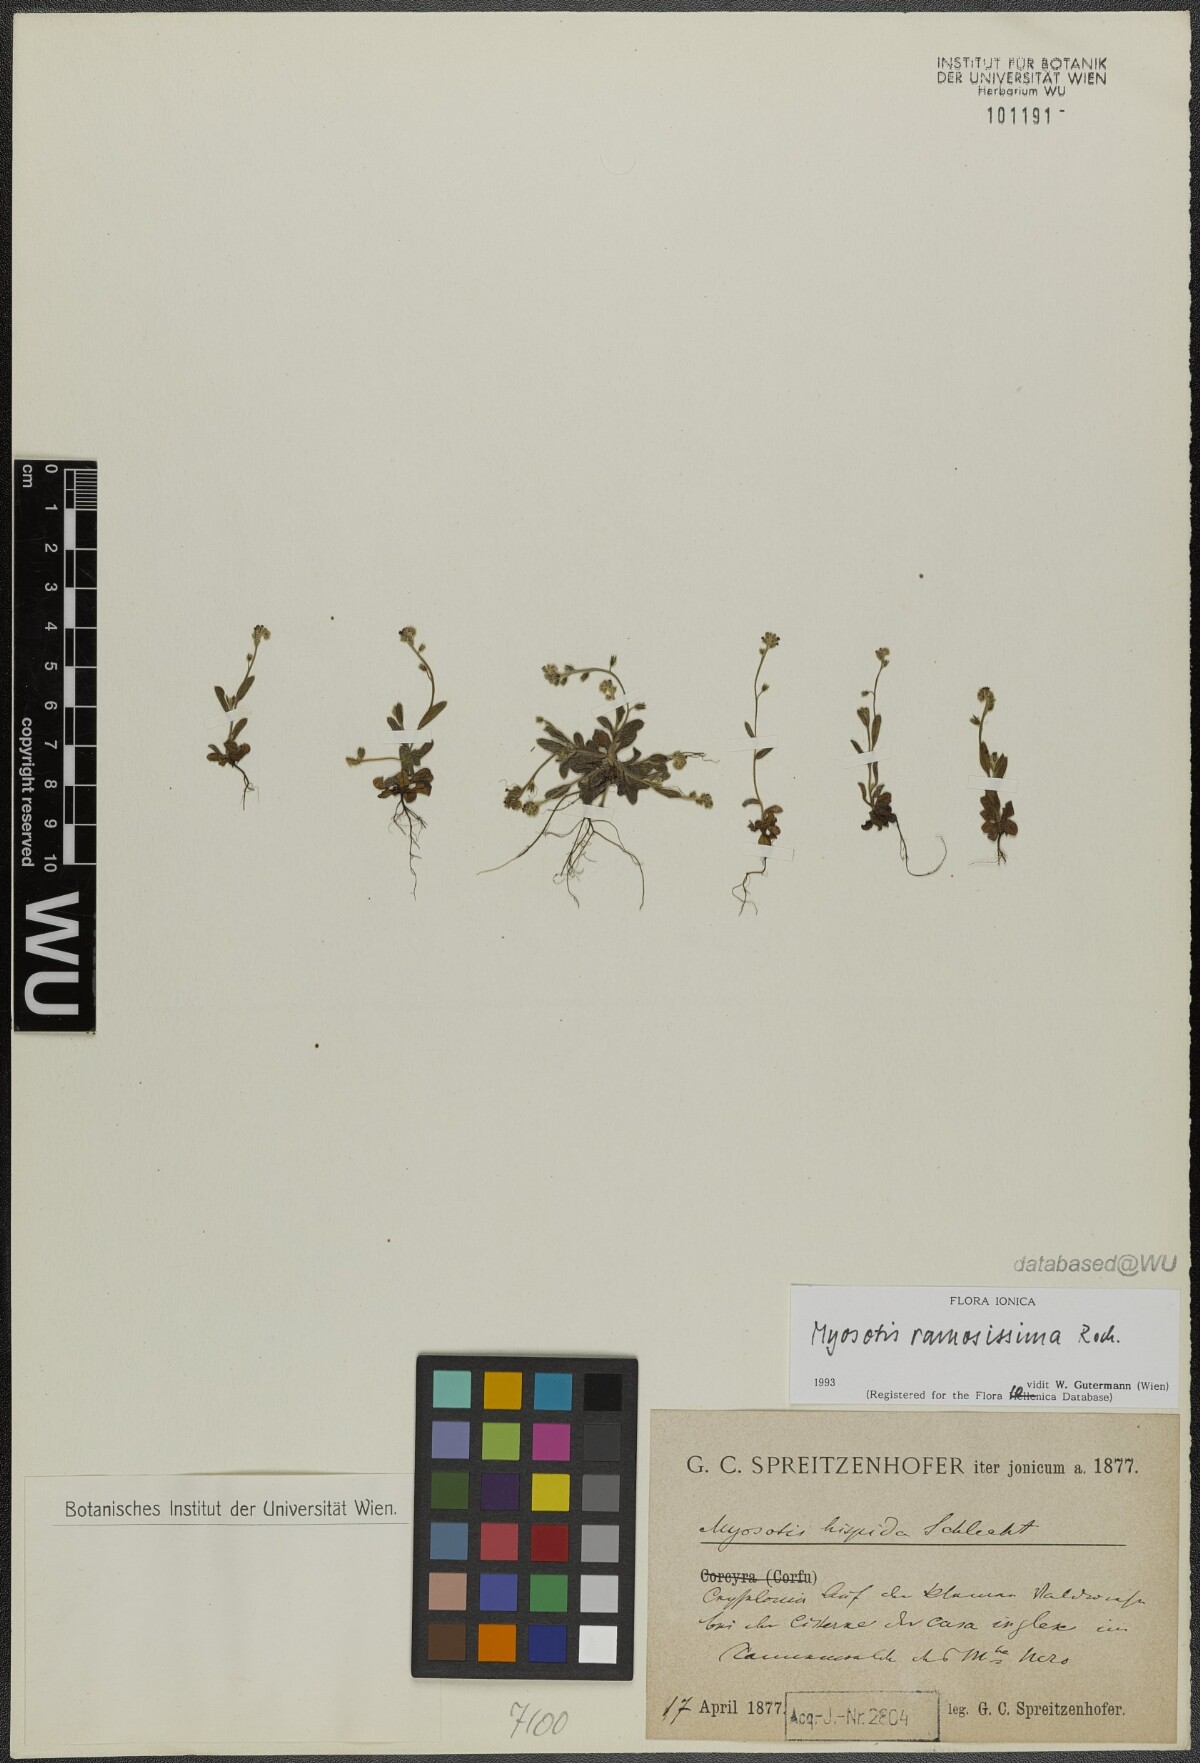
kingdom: Plantae
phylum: Tracheophyta
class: Magnoliopsida
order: Boraginales
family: Boraginaceae
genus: Myosotis
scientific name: Myosotis ramosissima
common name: Early forget-me-not
